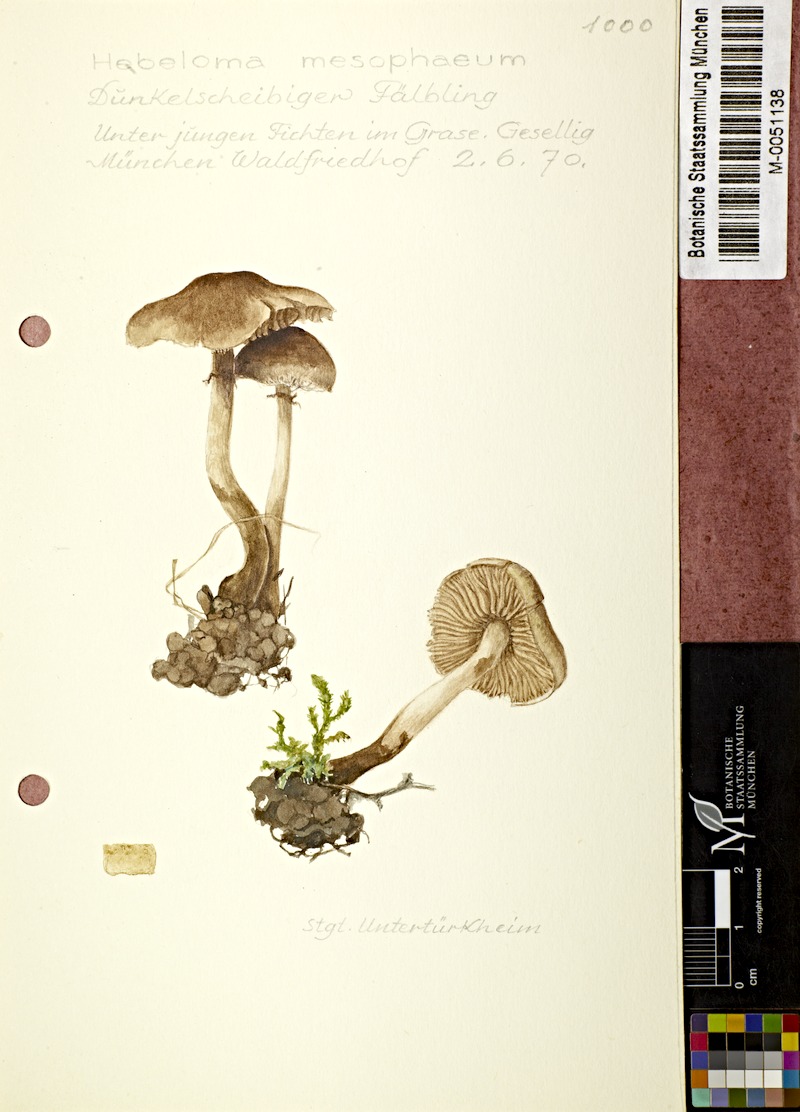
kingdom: Fungi
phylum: Basidiomycota
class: Agaricomycetes
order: Agaricales
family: Hymenogastraceae
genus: Hebeloma
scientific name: Hebeloma mesophaeum
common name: Veiled poisonpie
